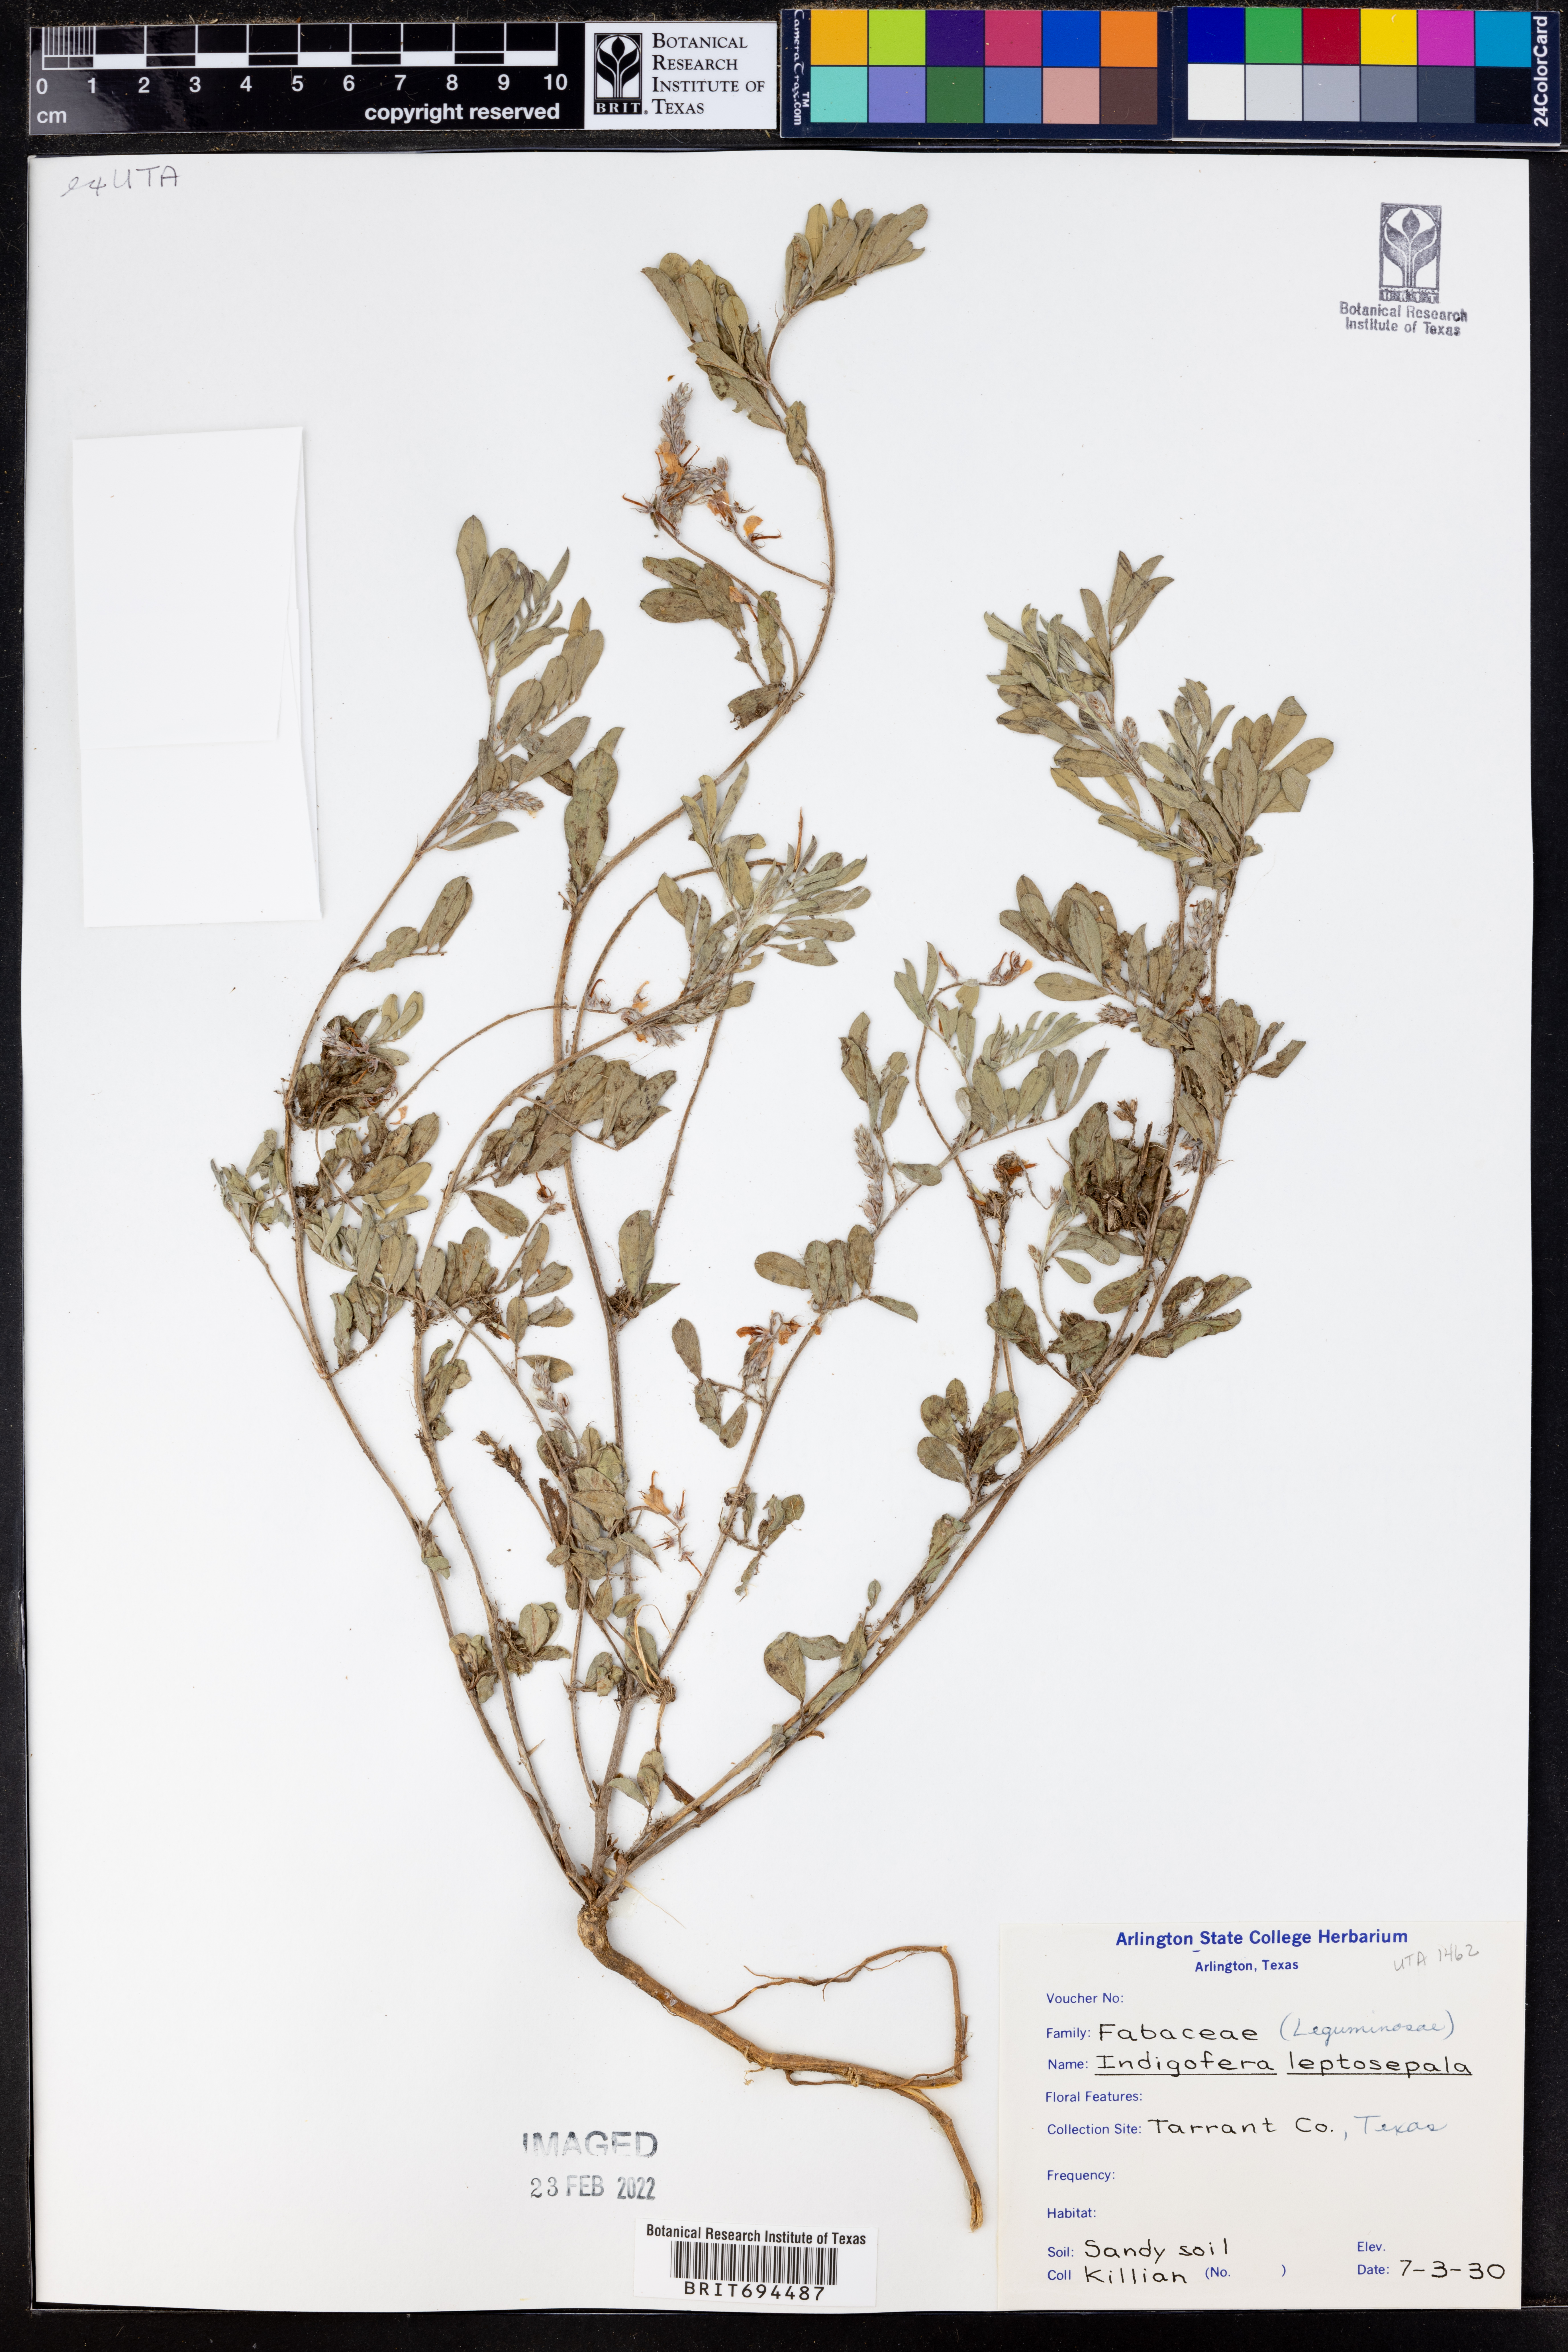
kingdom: Plantae
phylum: Tracheophyta
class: Magnoliopsida
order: Fabales
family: Fabaceae
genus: Indigofera
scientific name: Indigofera argutidens
